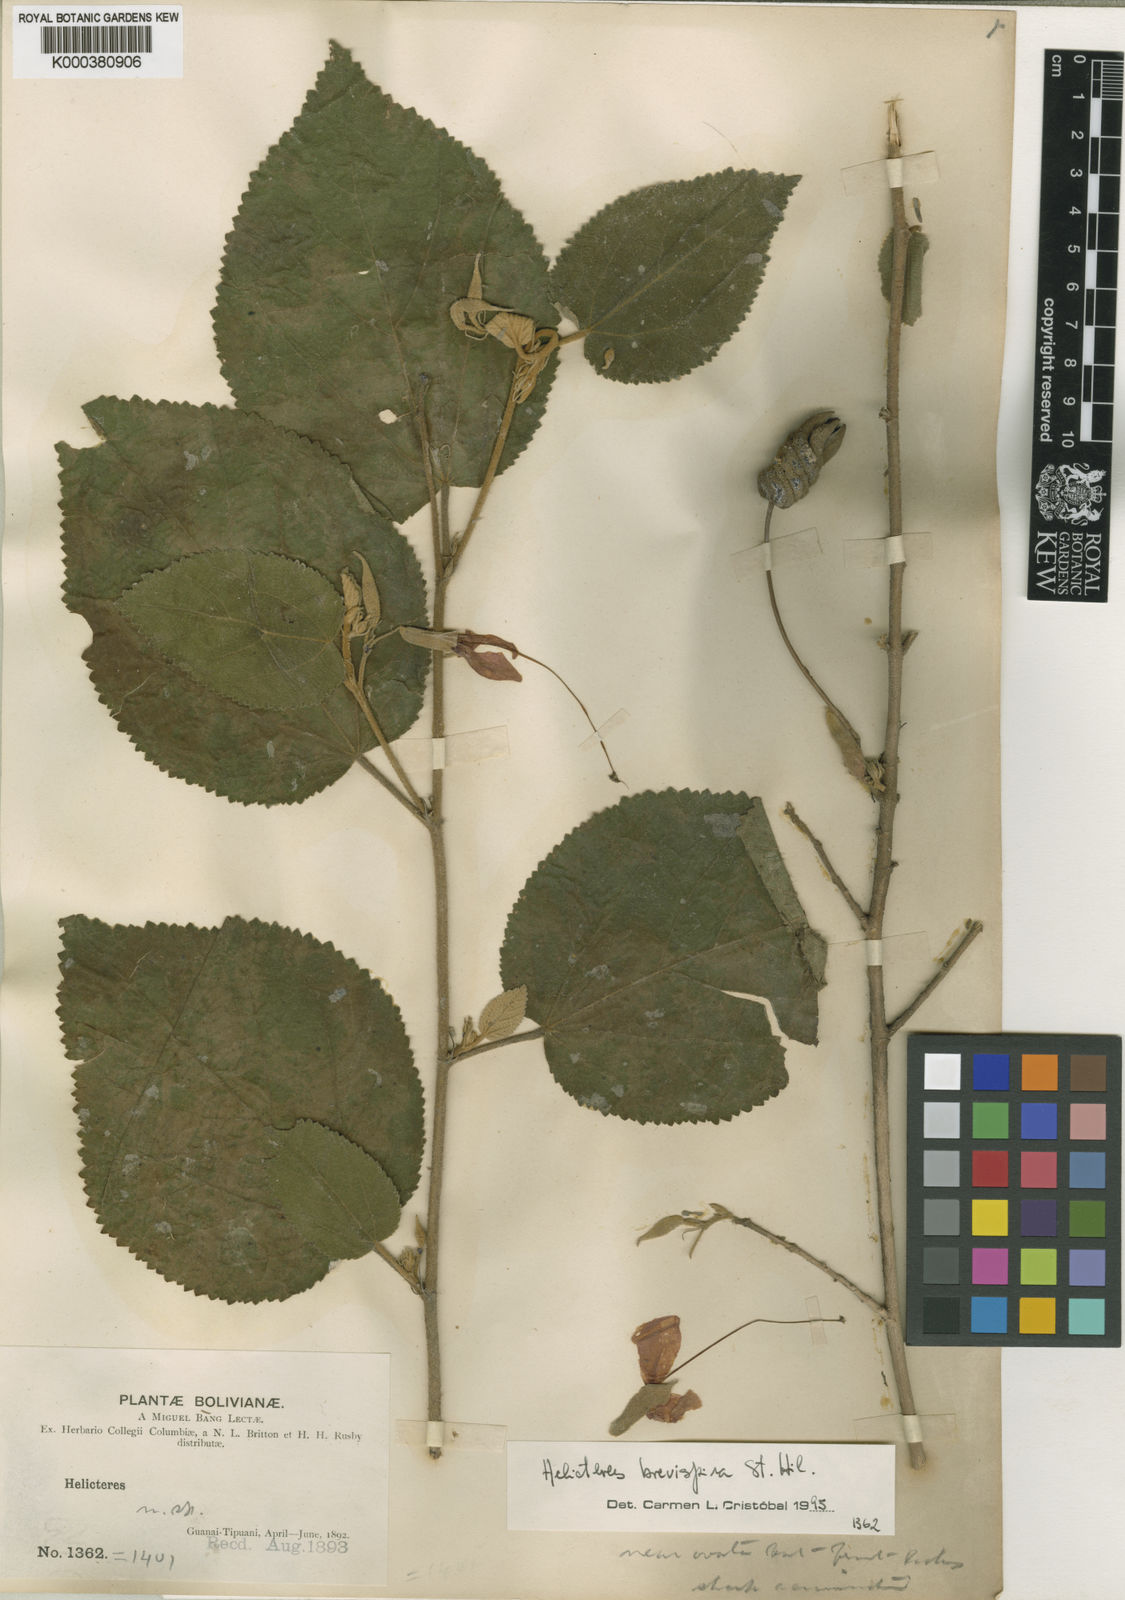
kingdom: Plantae
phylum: Tracheophyta
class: Magnoliopsida
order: Malvales
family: Malvaceae
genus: Helicteres
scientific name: Helicteres
